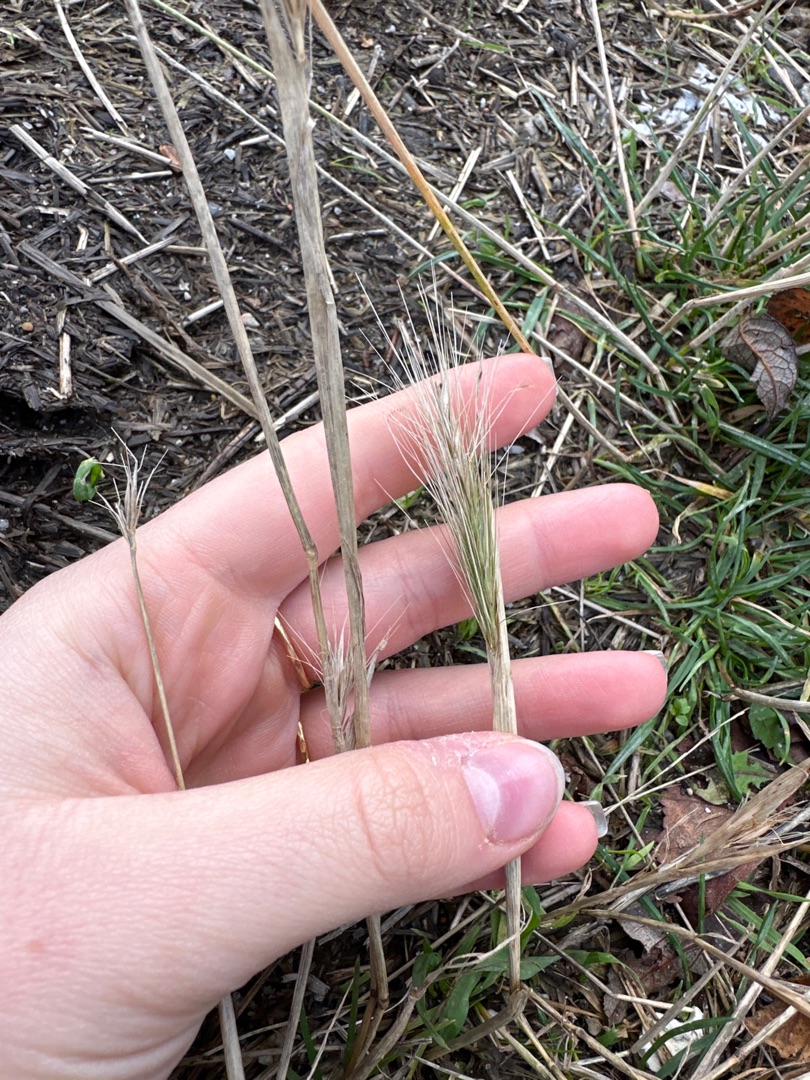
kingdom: Plantae
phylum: Tracheophyta
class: Liliopsida
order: Poales
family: Poaceae
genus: Hordeum
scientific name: Hordeum
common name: Byg (Hordeum-slægten)
